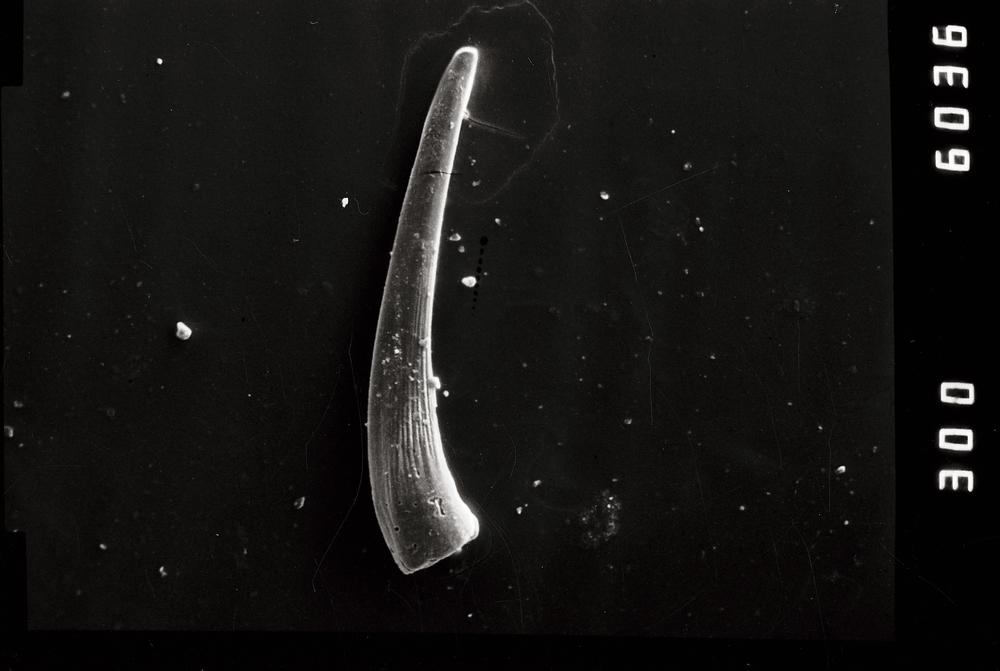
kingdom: Animalia
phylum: Chordata
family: Strachanognathidae
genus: Decoriconus
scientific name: Decoriconus
